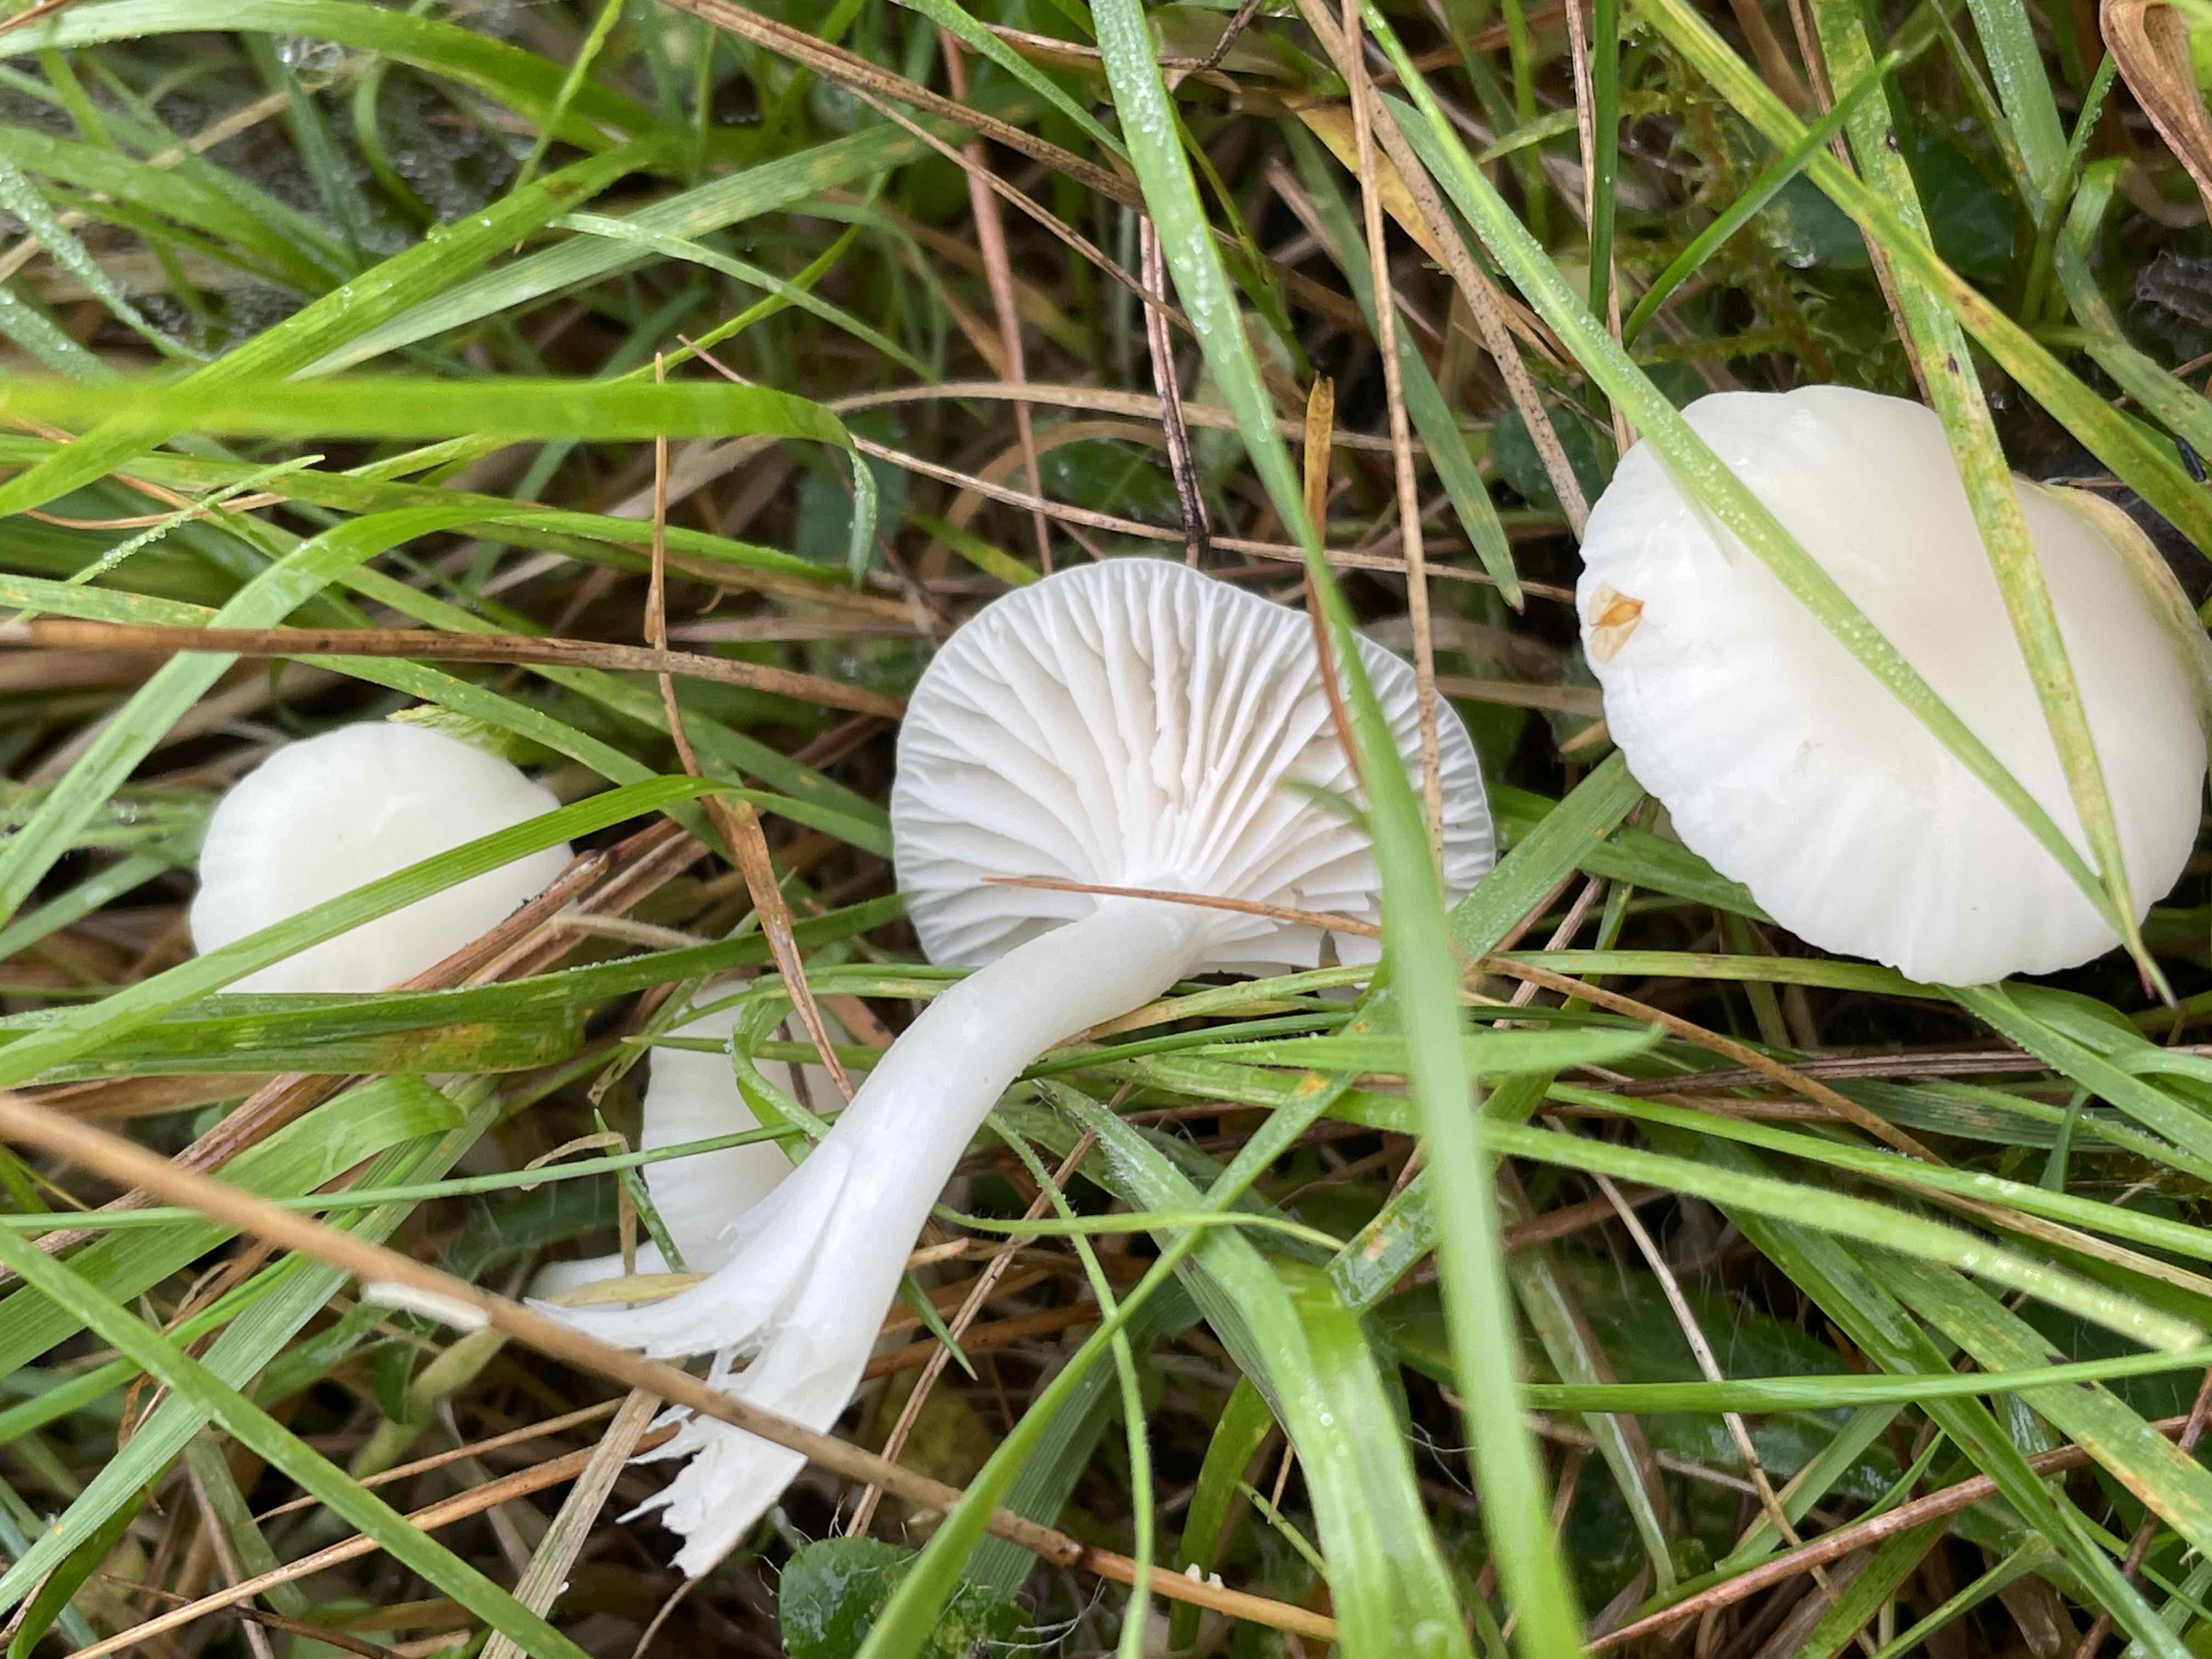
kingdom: Fungi
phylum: Basidiomycota
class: Agaricomycetes
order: Agaricales
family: Hygrophoraceae
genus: Cuphophyllus
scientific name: Cuphophyllus virgineus
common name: snehvid vokshat
